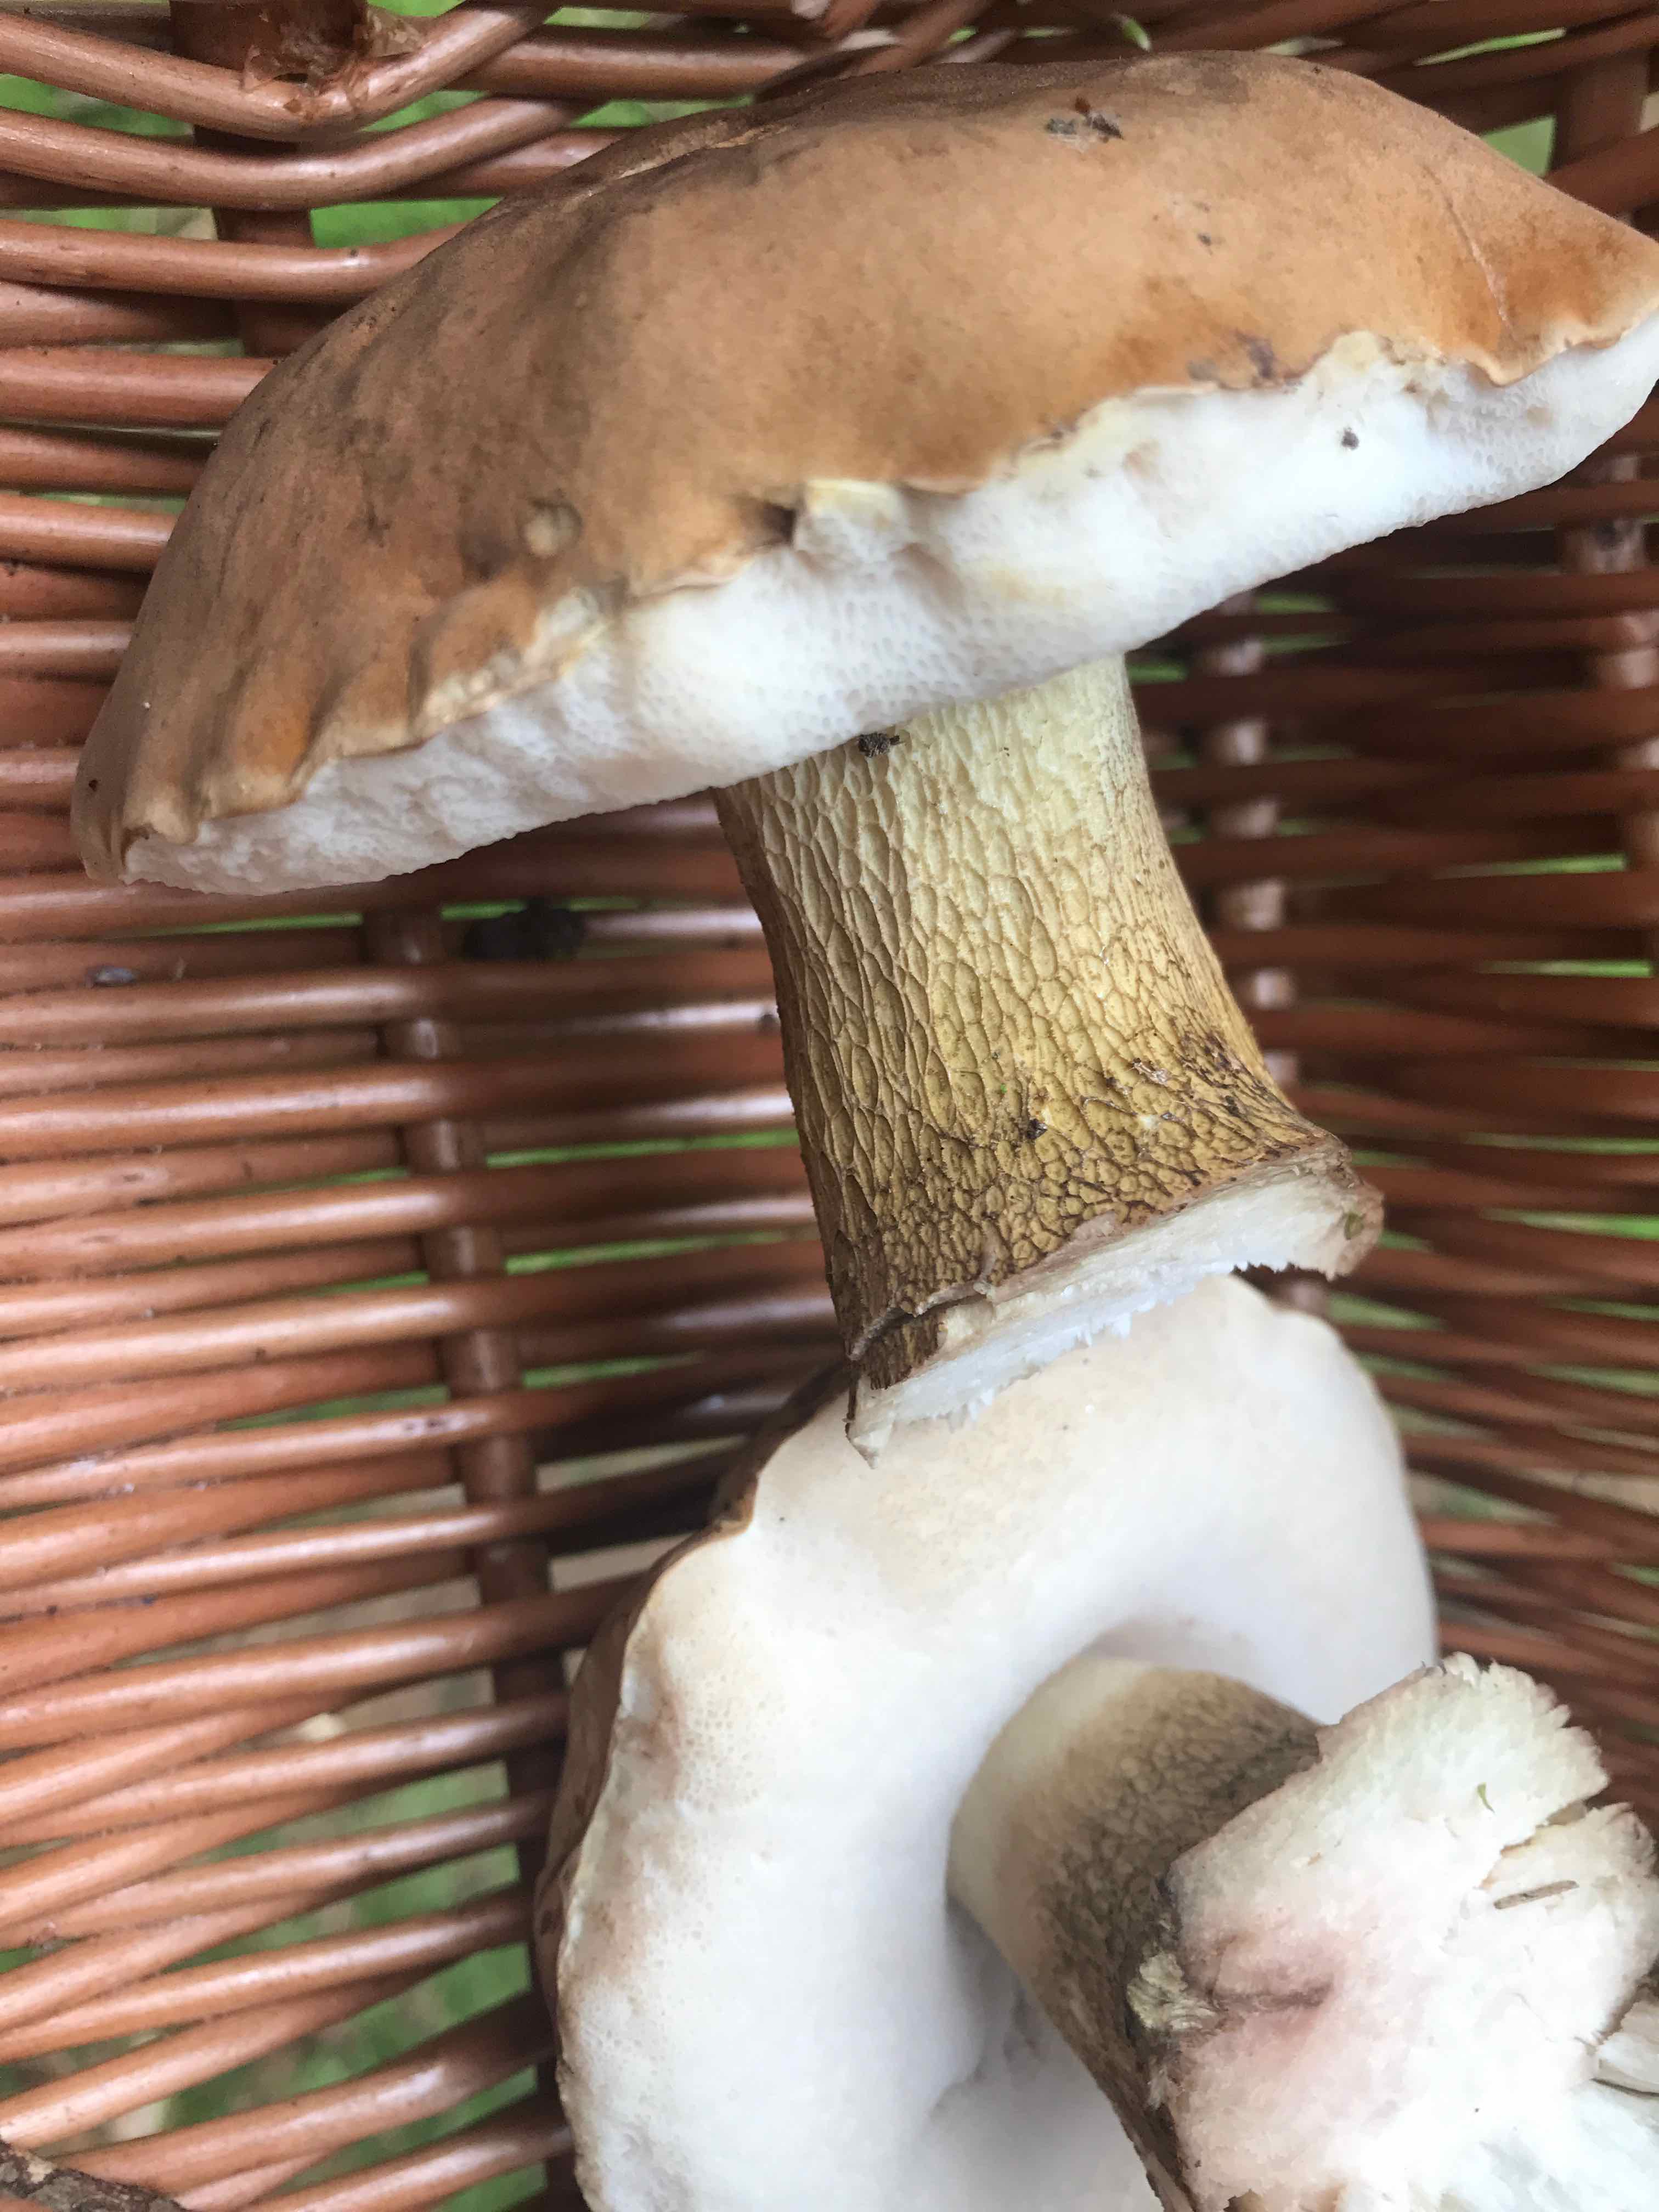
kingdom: Fungi
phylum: Basidiomycota
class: Agaricomycetes
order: Boletales
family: Boletaceae
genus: Boletus
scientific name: Boletus edulis
